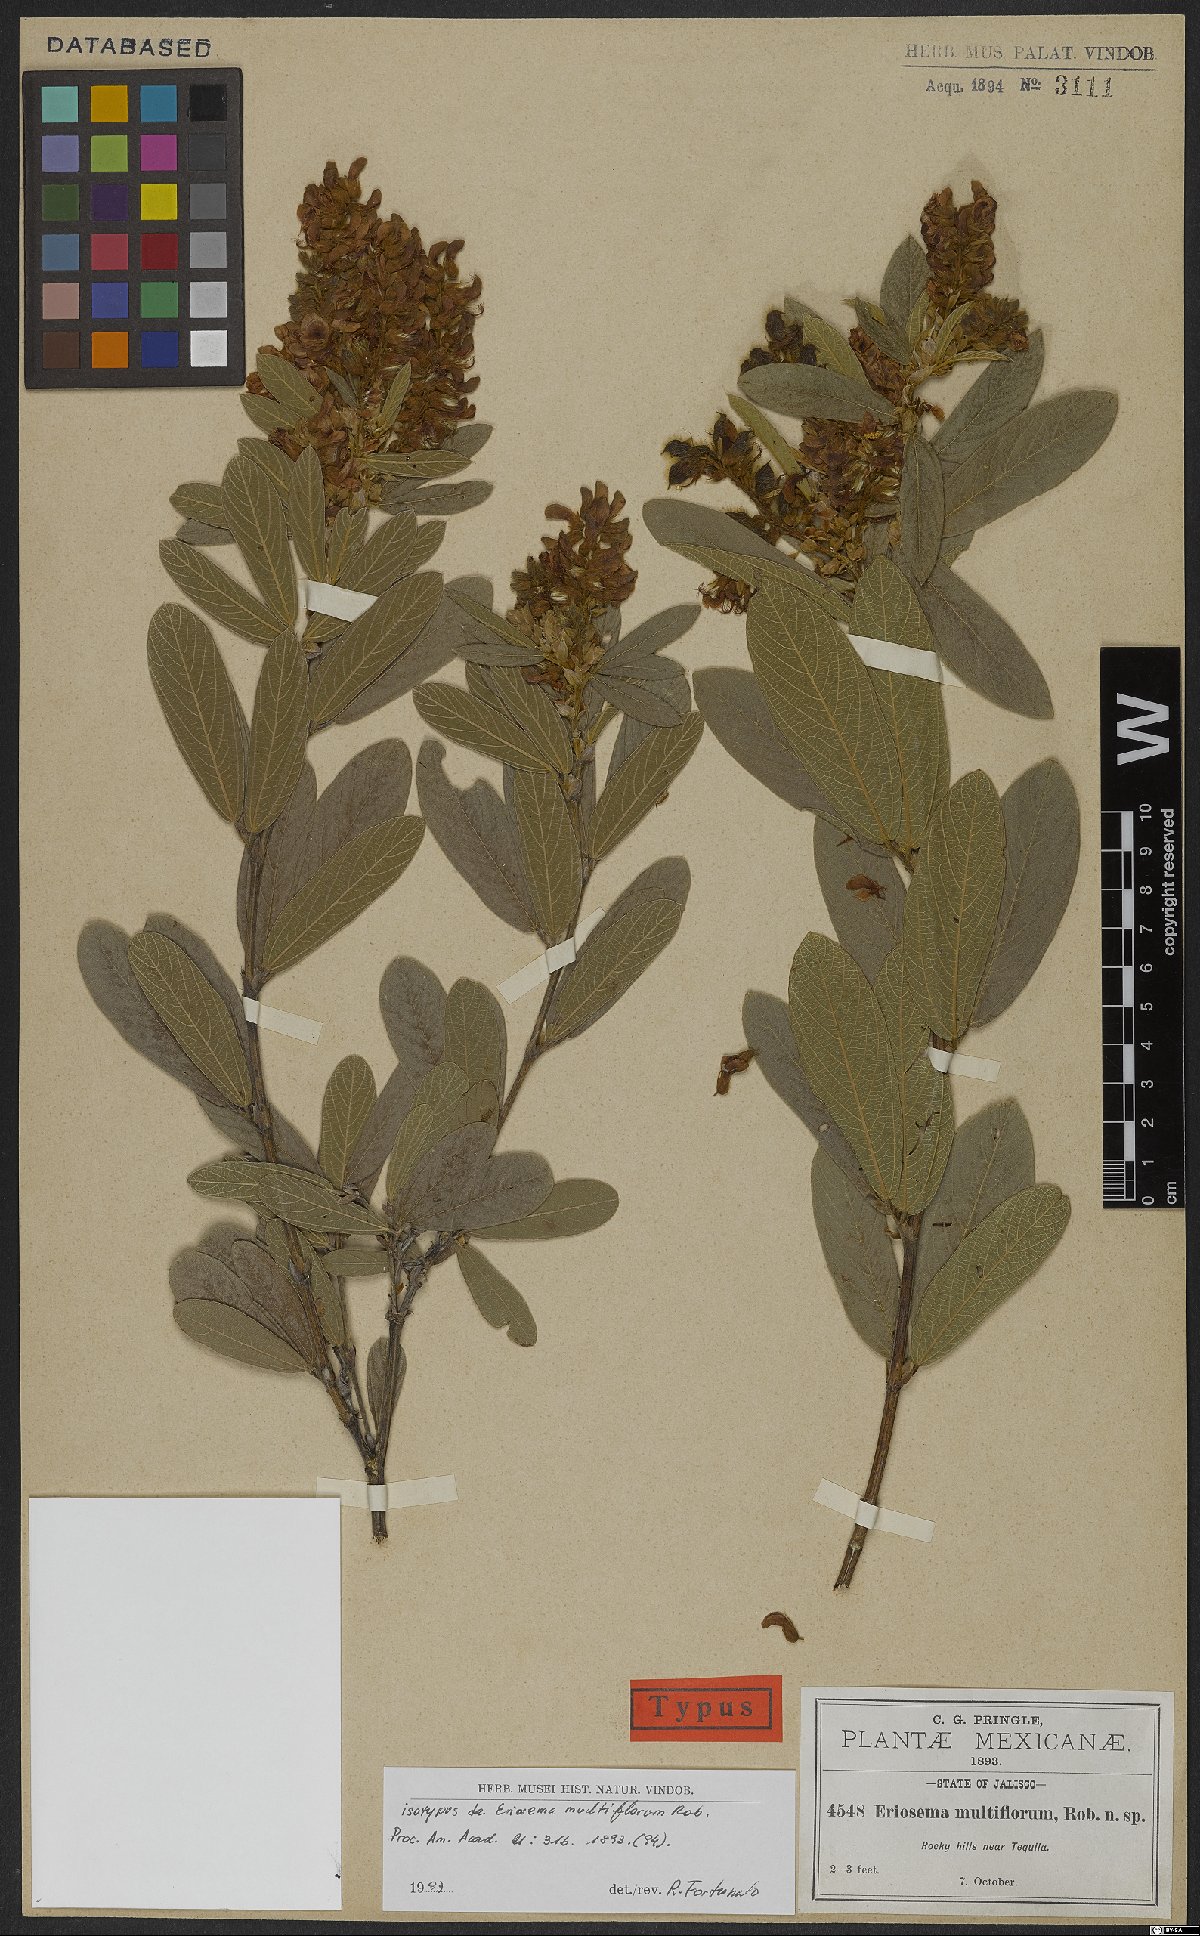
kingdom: Plantae
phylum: Tracheophyta
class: Magnoliopsida
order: Fabales
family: Fabaceae
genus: Eriosema
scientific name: Eriosema multiflorum
